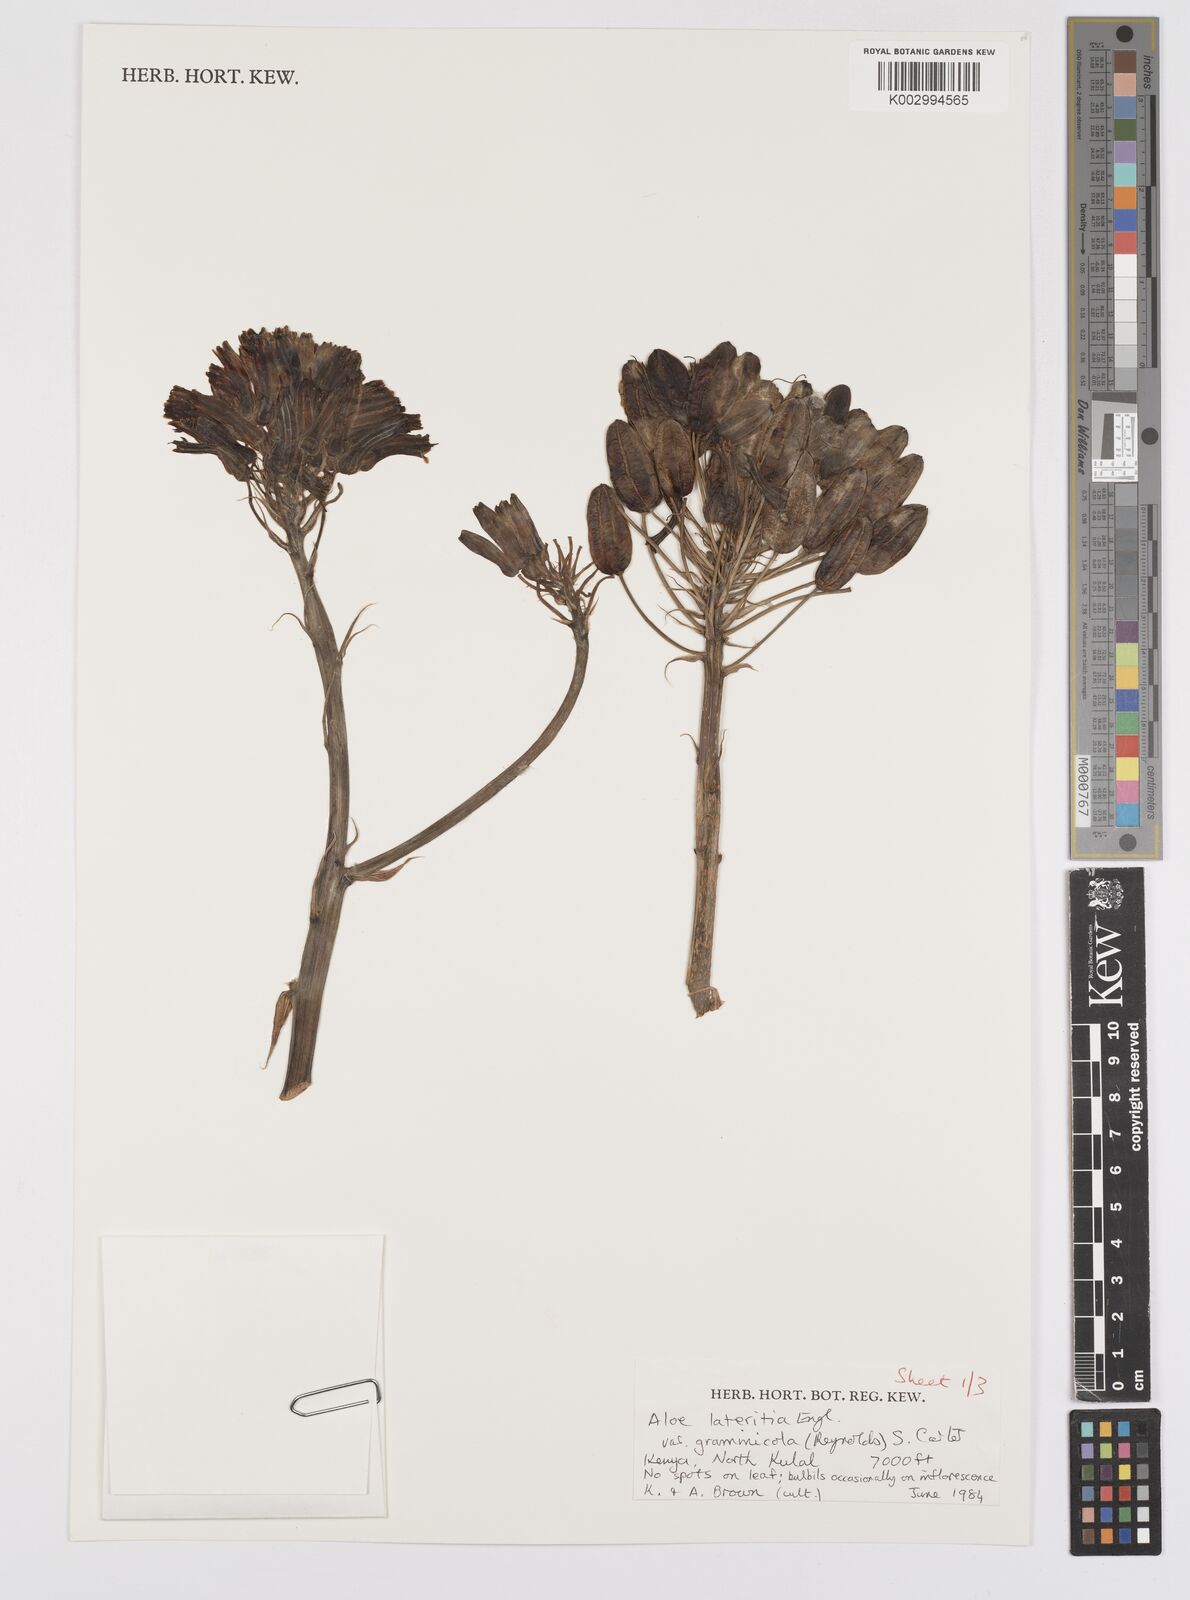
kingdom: Plantae
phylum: Tracheophyta
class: Liliopsida
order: Asparagales
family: Asphodelaceae
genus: Aloe
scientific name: Aloe lateritia
